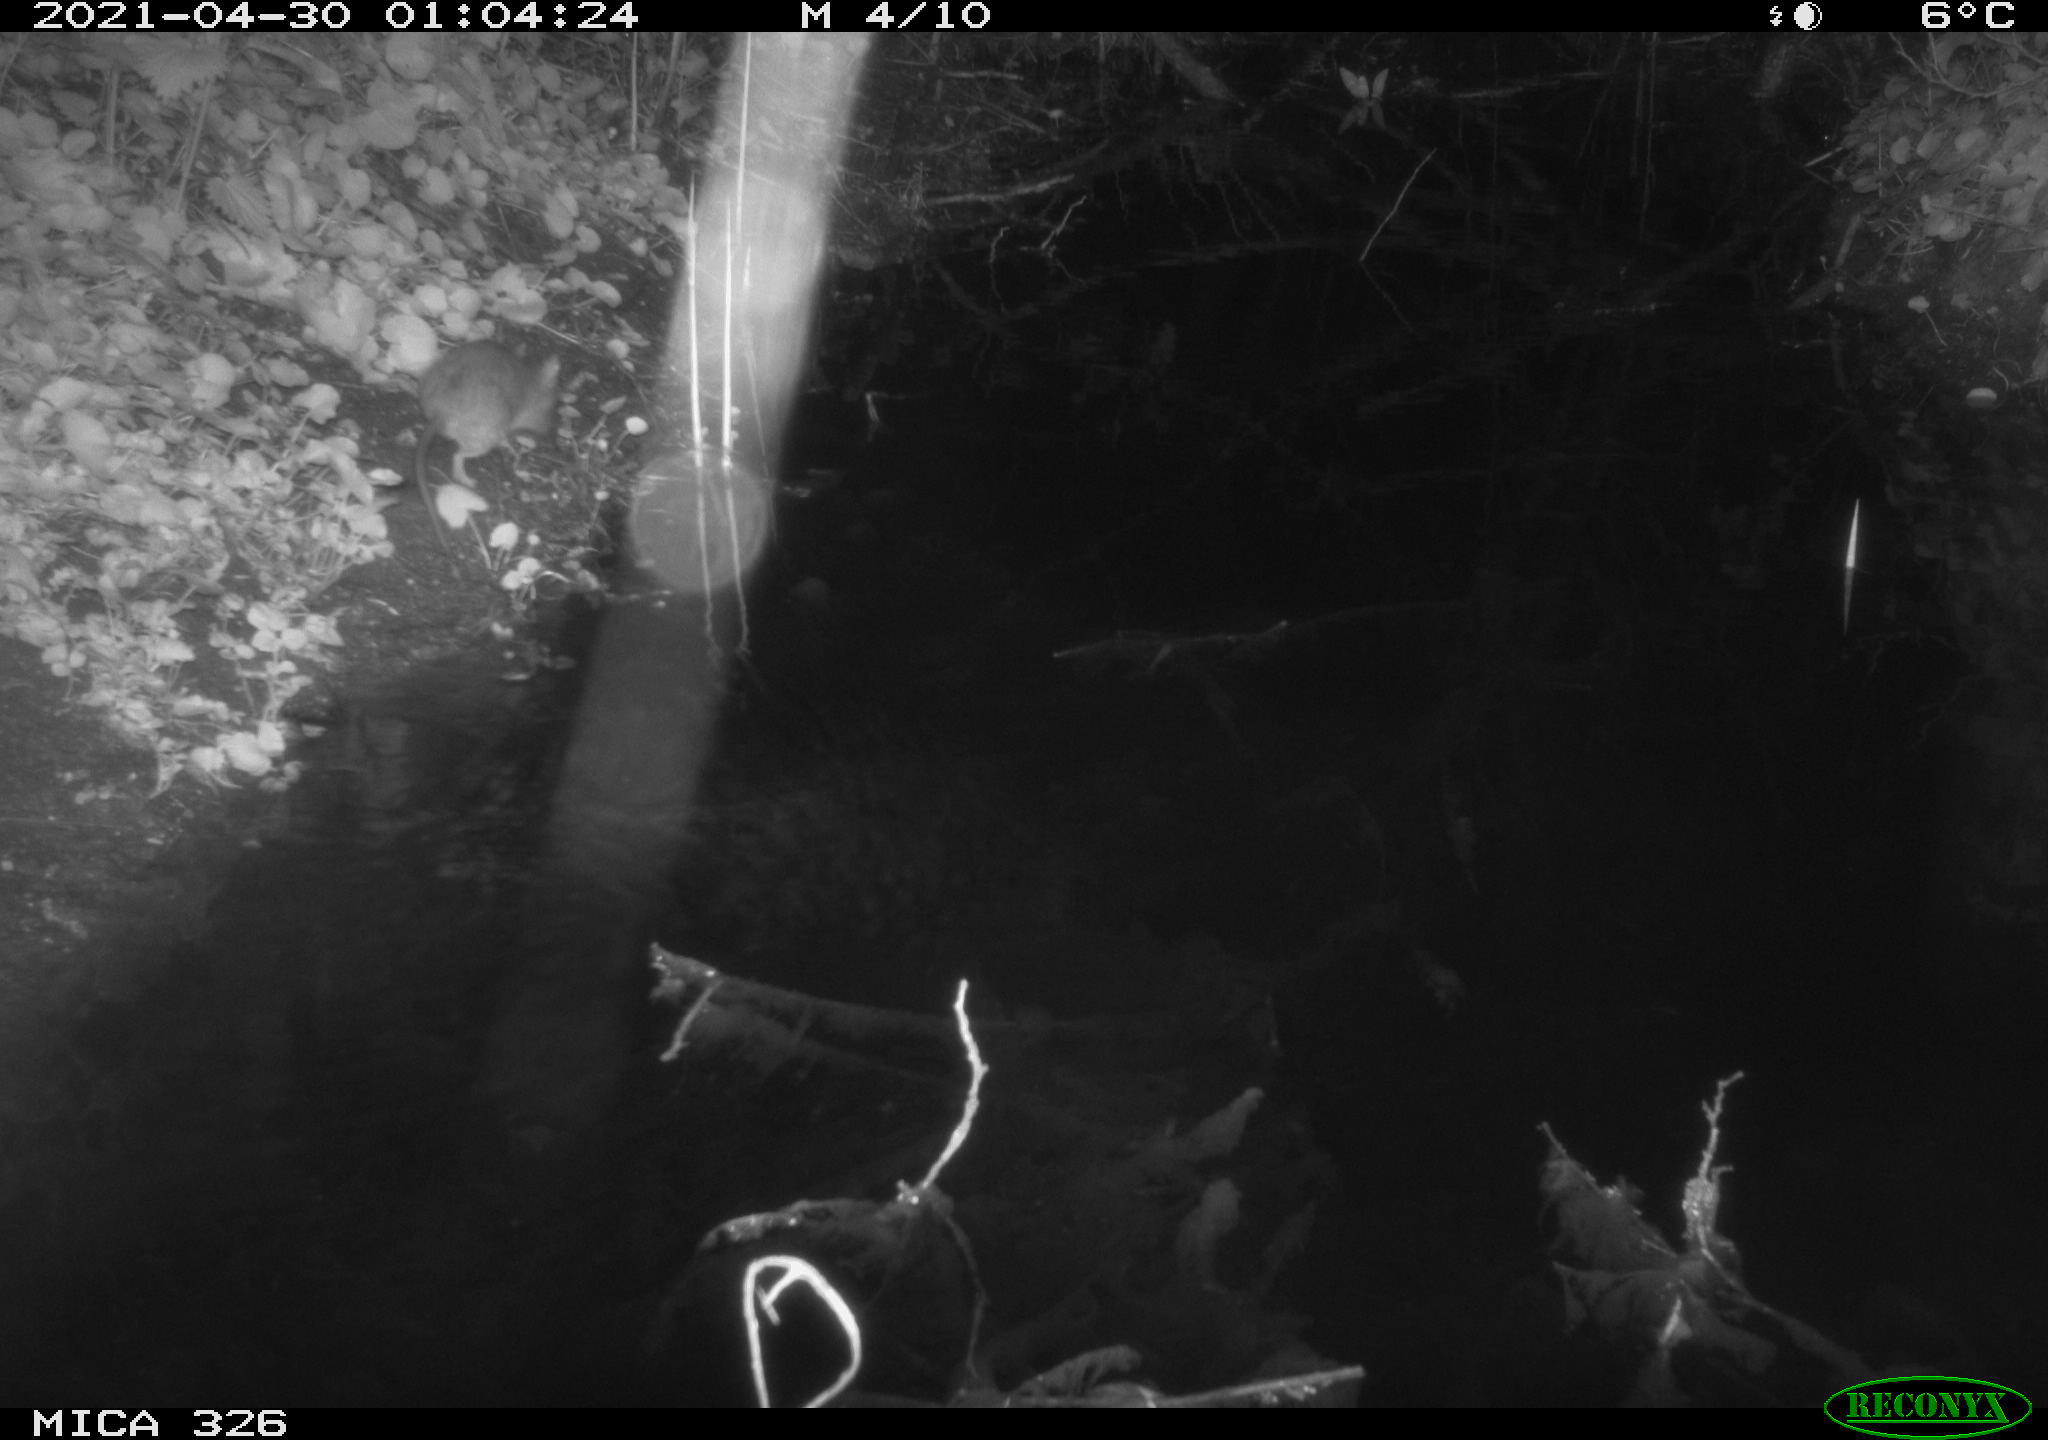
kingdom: Animalia
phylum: Chordata
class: Mammalia
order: Rodentia
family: Muridae
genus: Rattus
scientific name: Rattus norvegicus
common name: Brown rat
